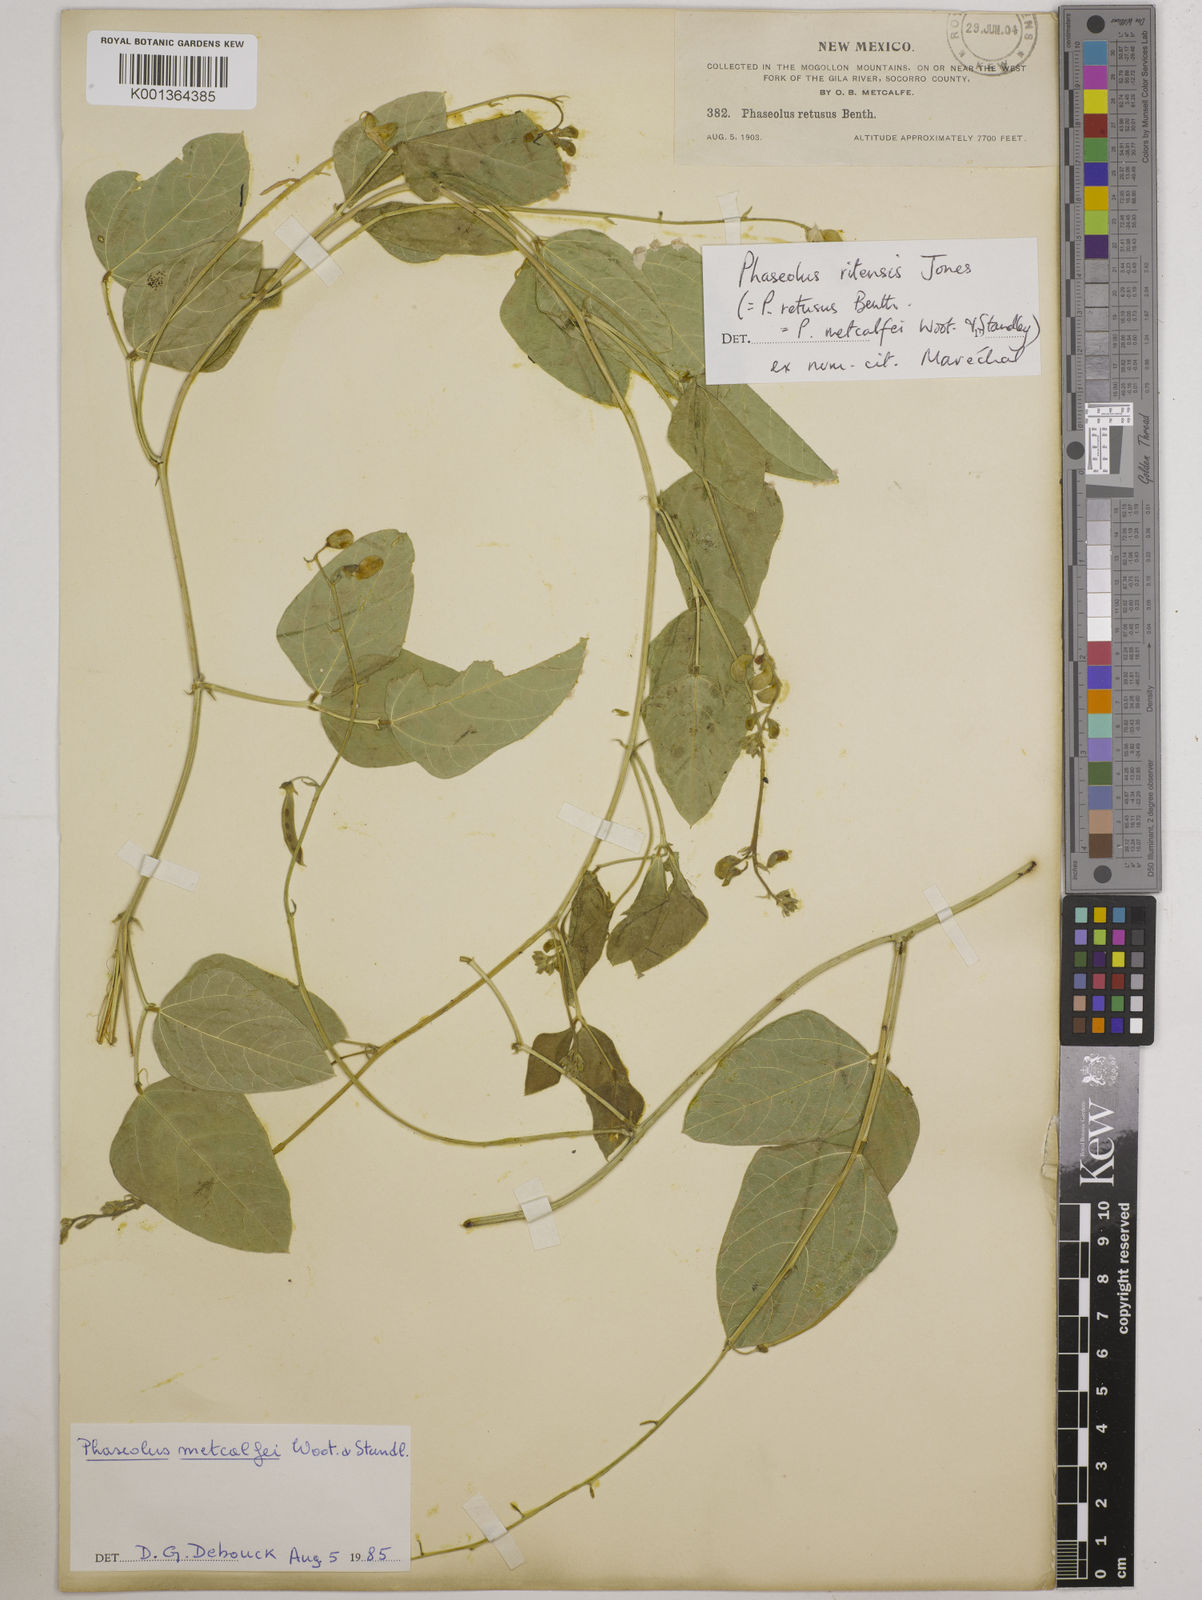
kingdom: Plantae
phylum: Tracheophyta
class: Magnoliopsida
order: Fabales
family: Fabaceae
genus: Phaseolus
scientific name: Phaseolus maculatus
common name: Metcalfe bean
